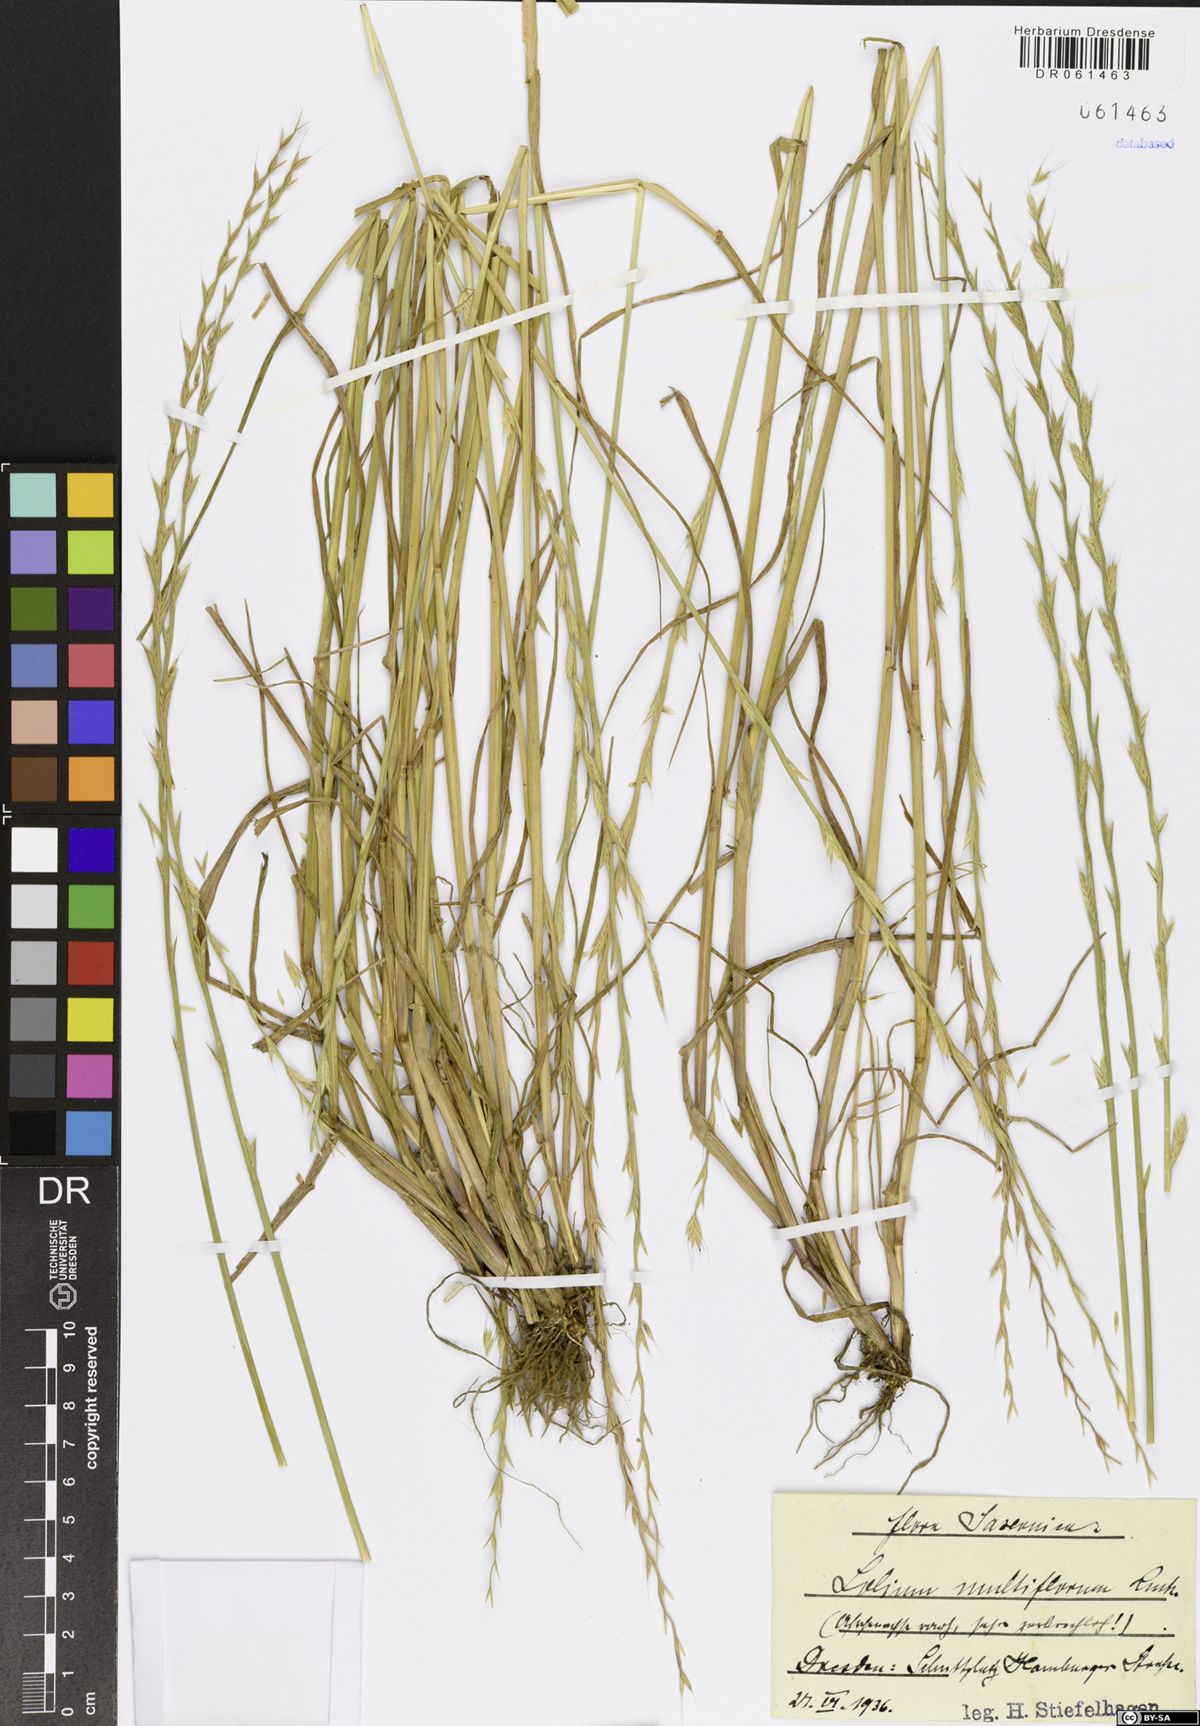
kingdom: Plantae
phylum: Tracheophyta
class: Liliopsida
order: Poales
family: Poaceae
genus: Lolium
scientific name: Lolium multiflorum
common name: Annual ryegrass
